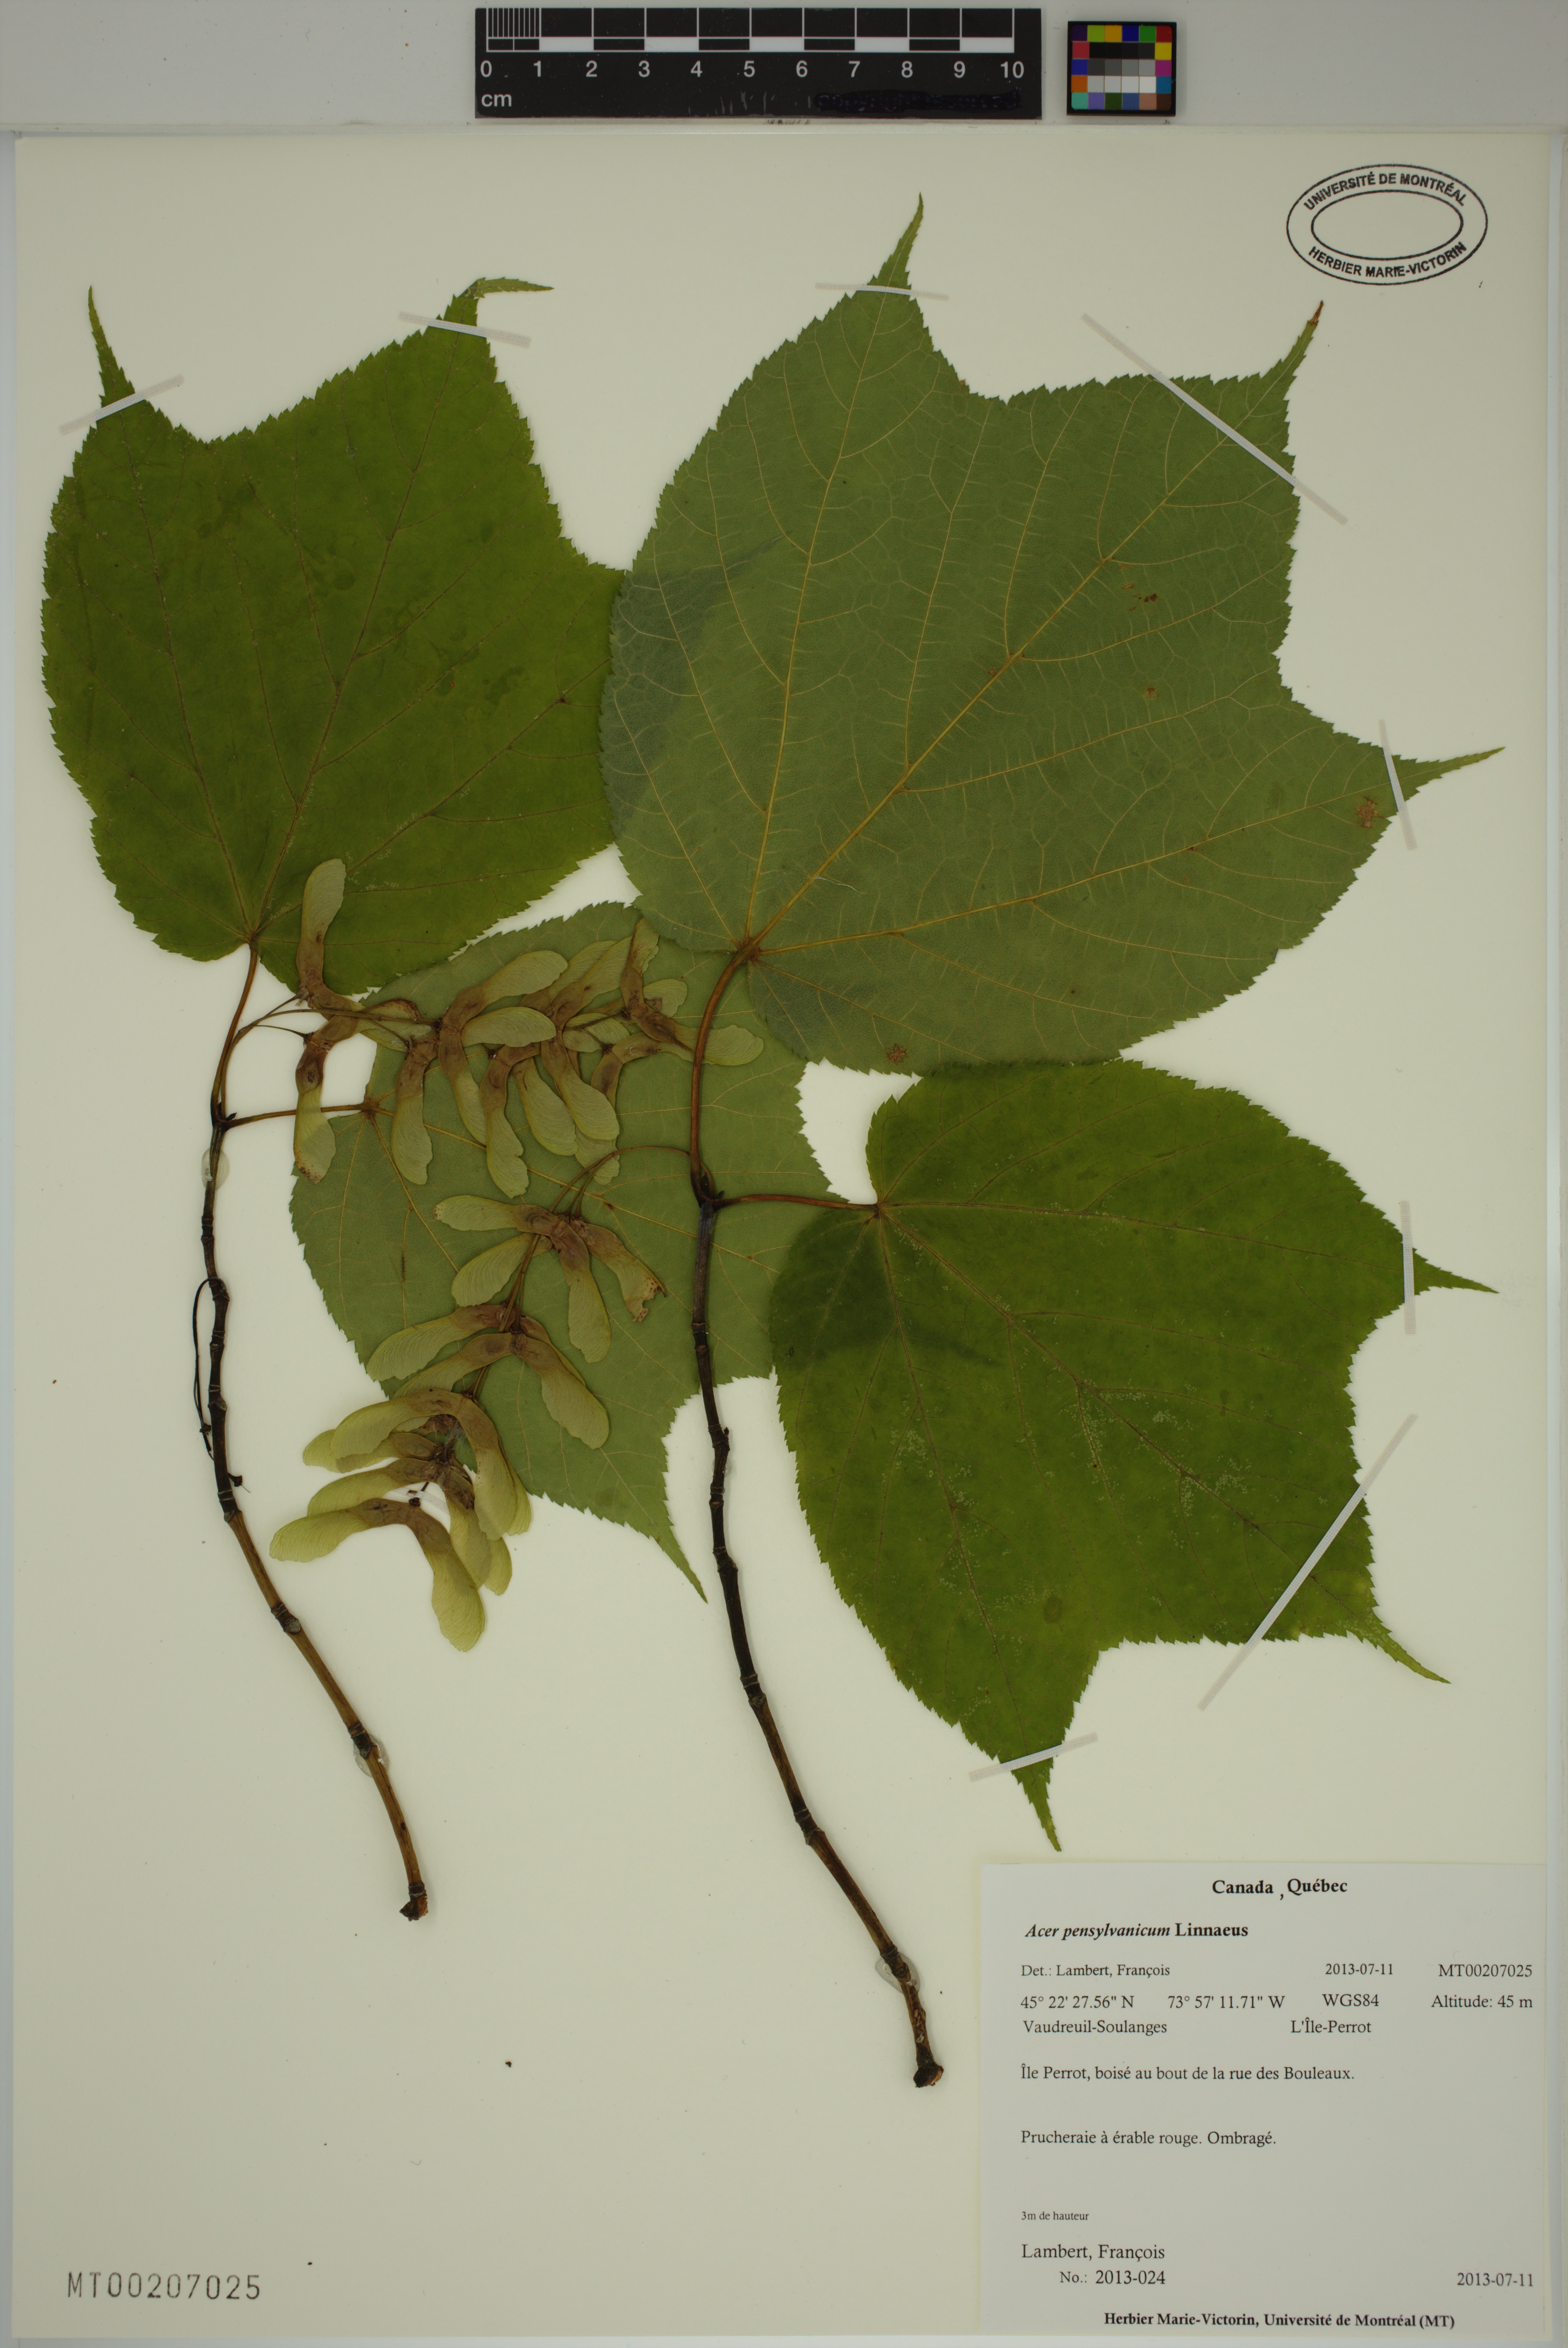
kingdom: Plantae
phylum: Tracheophyta
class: Magnoliopsida
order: Sapindales
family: Sapindaceae
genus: Acer
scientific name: Acer pensylvanicum
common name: Moosewood
